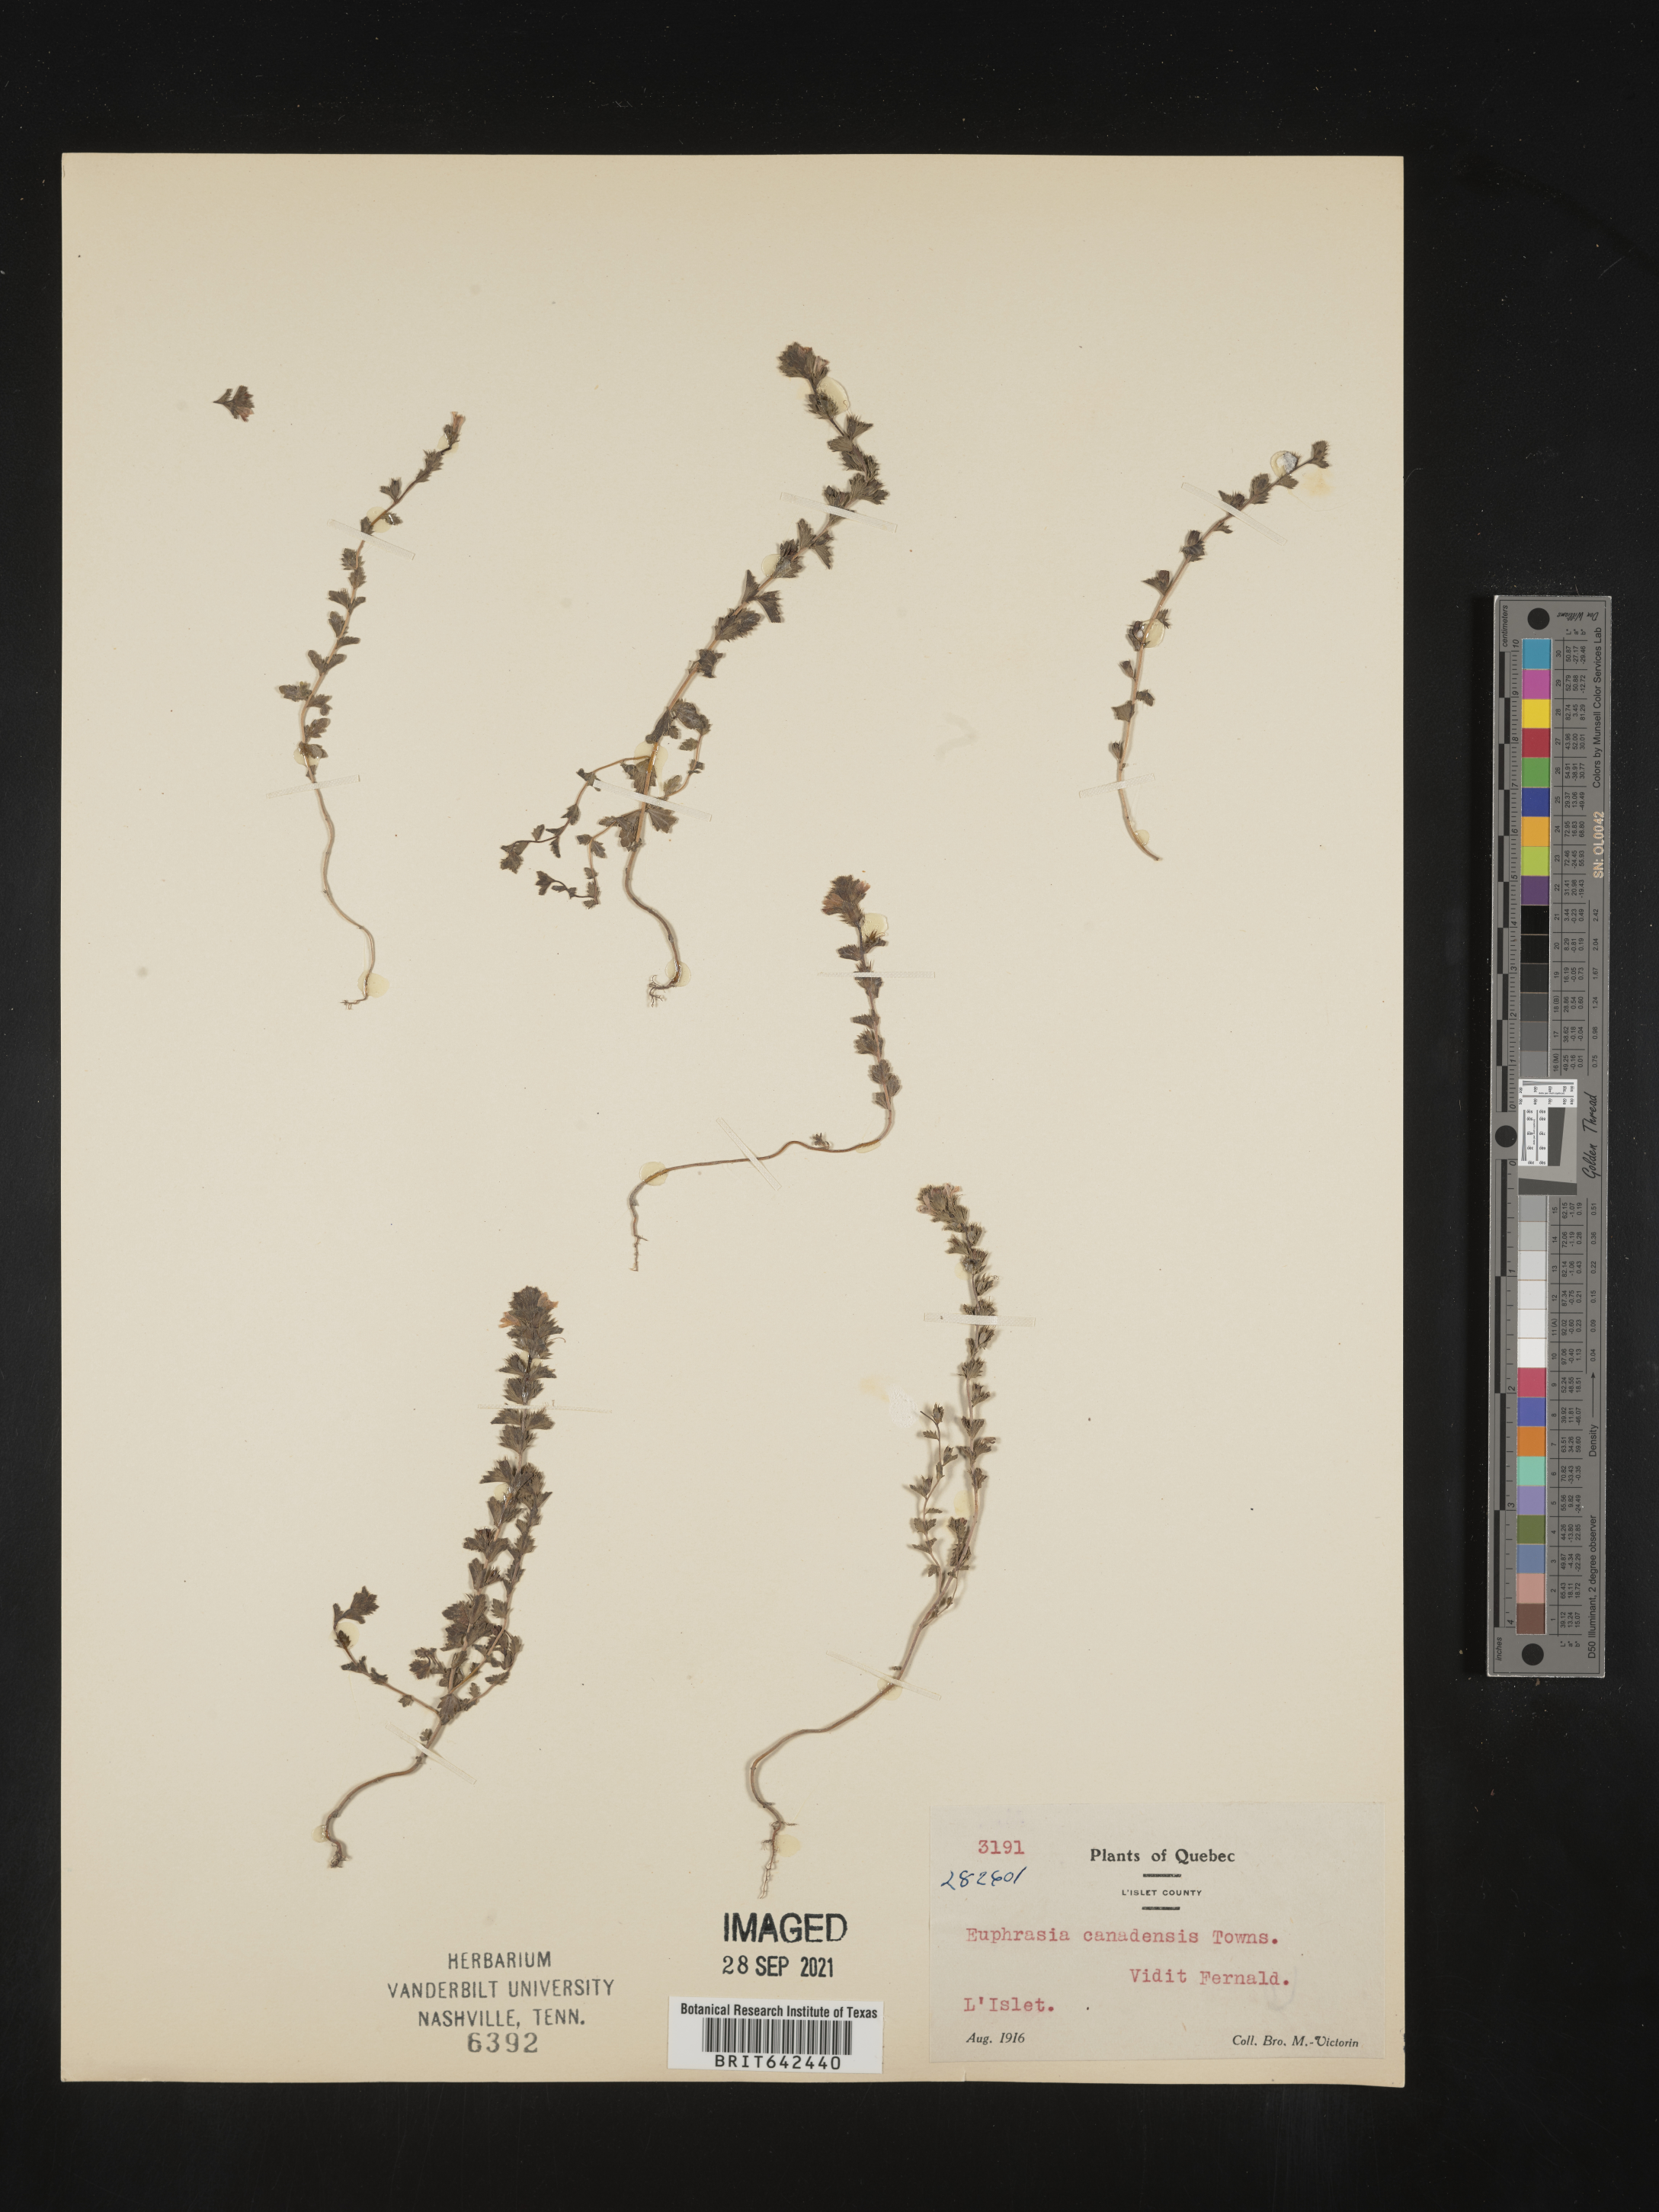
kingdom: Plantae
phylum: Tracheophyta
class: Magnoliopsida
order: Lamiales
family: Orobanchaceae
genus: Euphrasia
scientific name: Euphrasia
